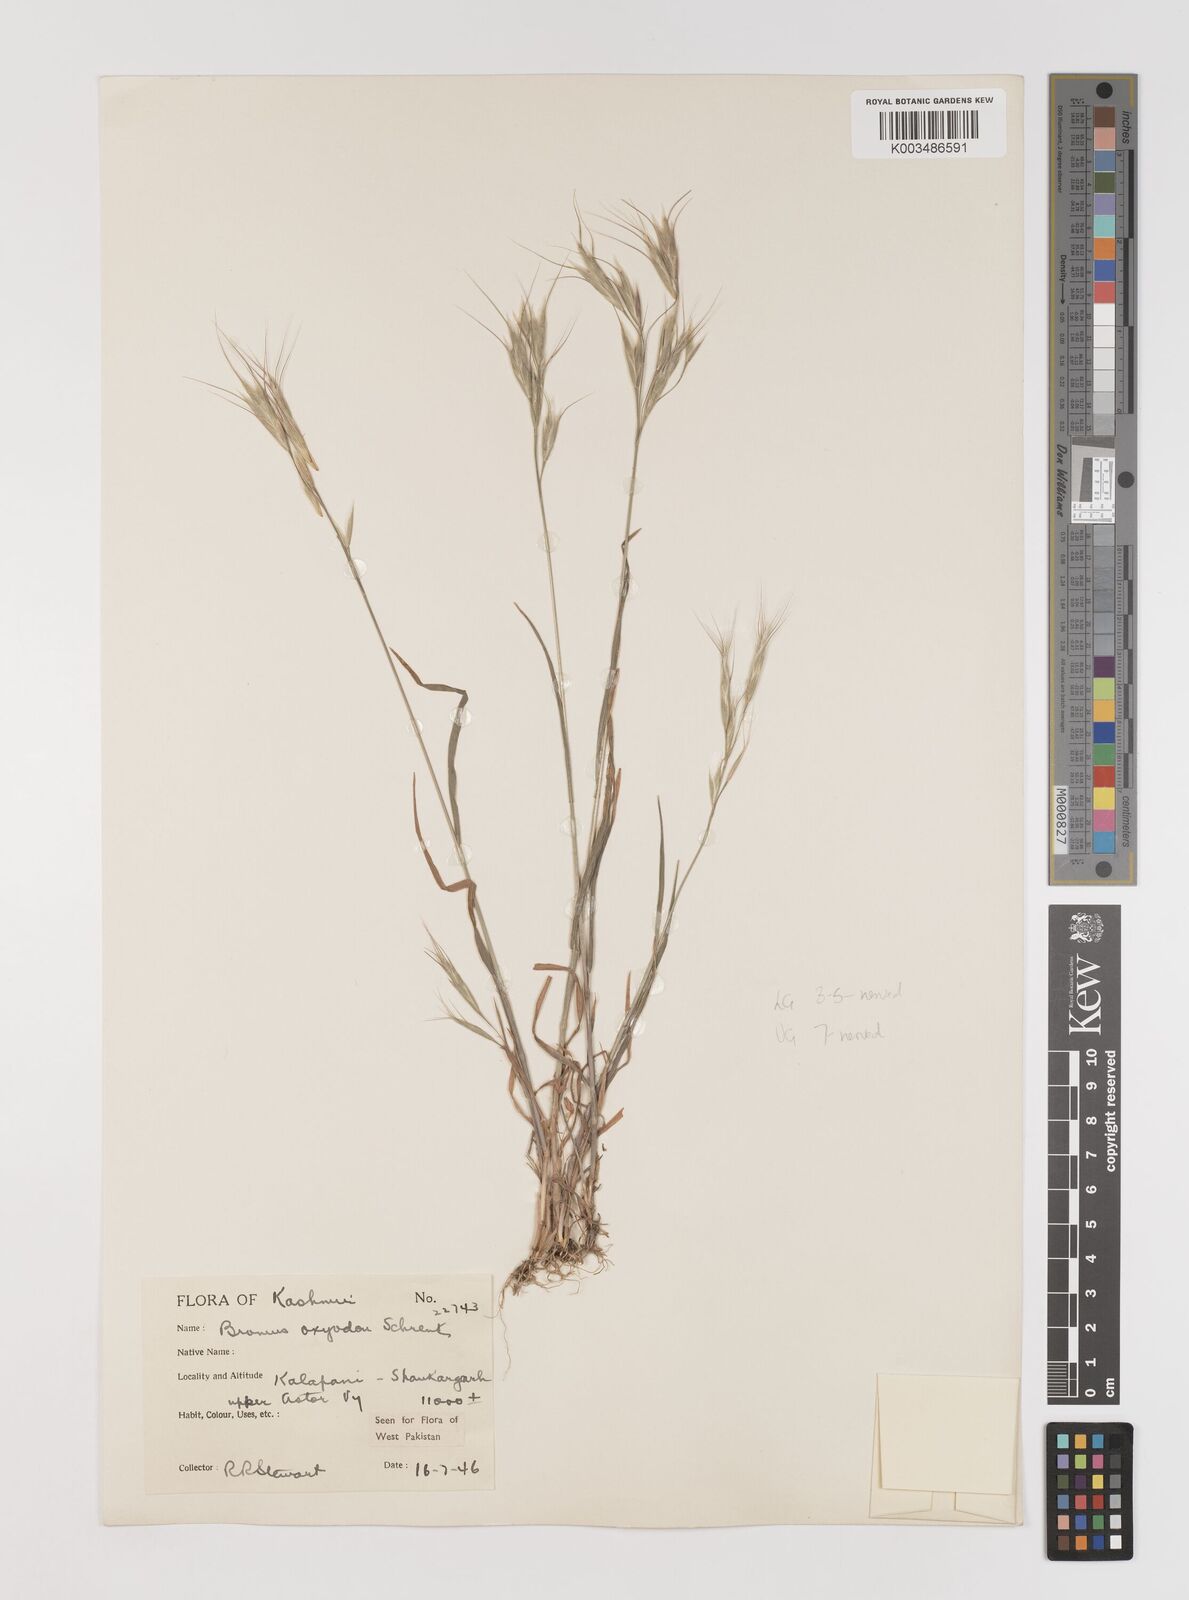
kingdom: Plantae
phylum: Tracheophyta
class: Liliopsida
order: Poales
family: Poaceae
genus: Bromus
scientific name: Bromus oxyodon
